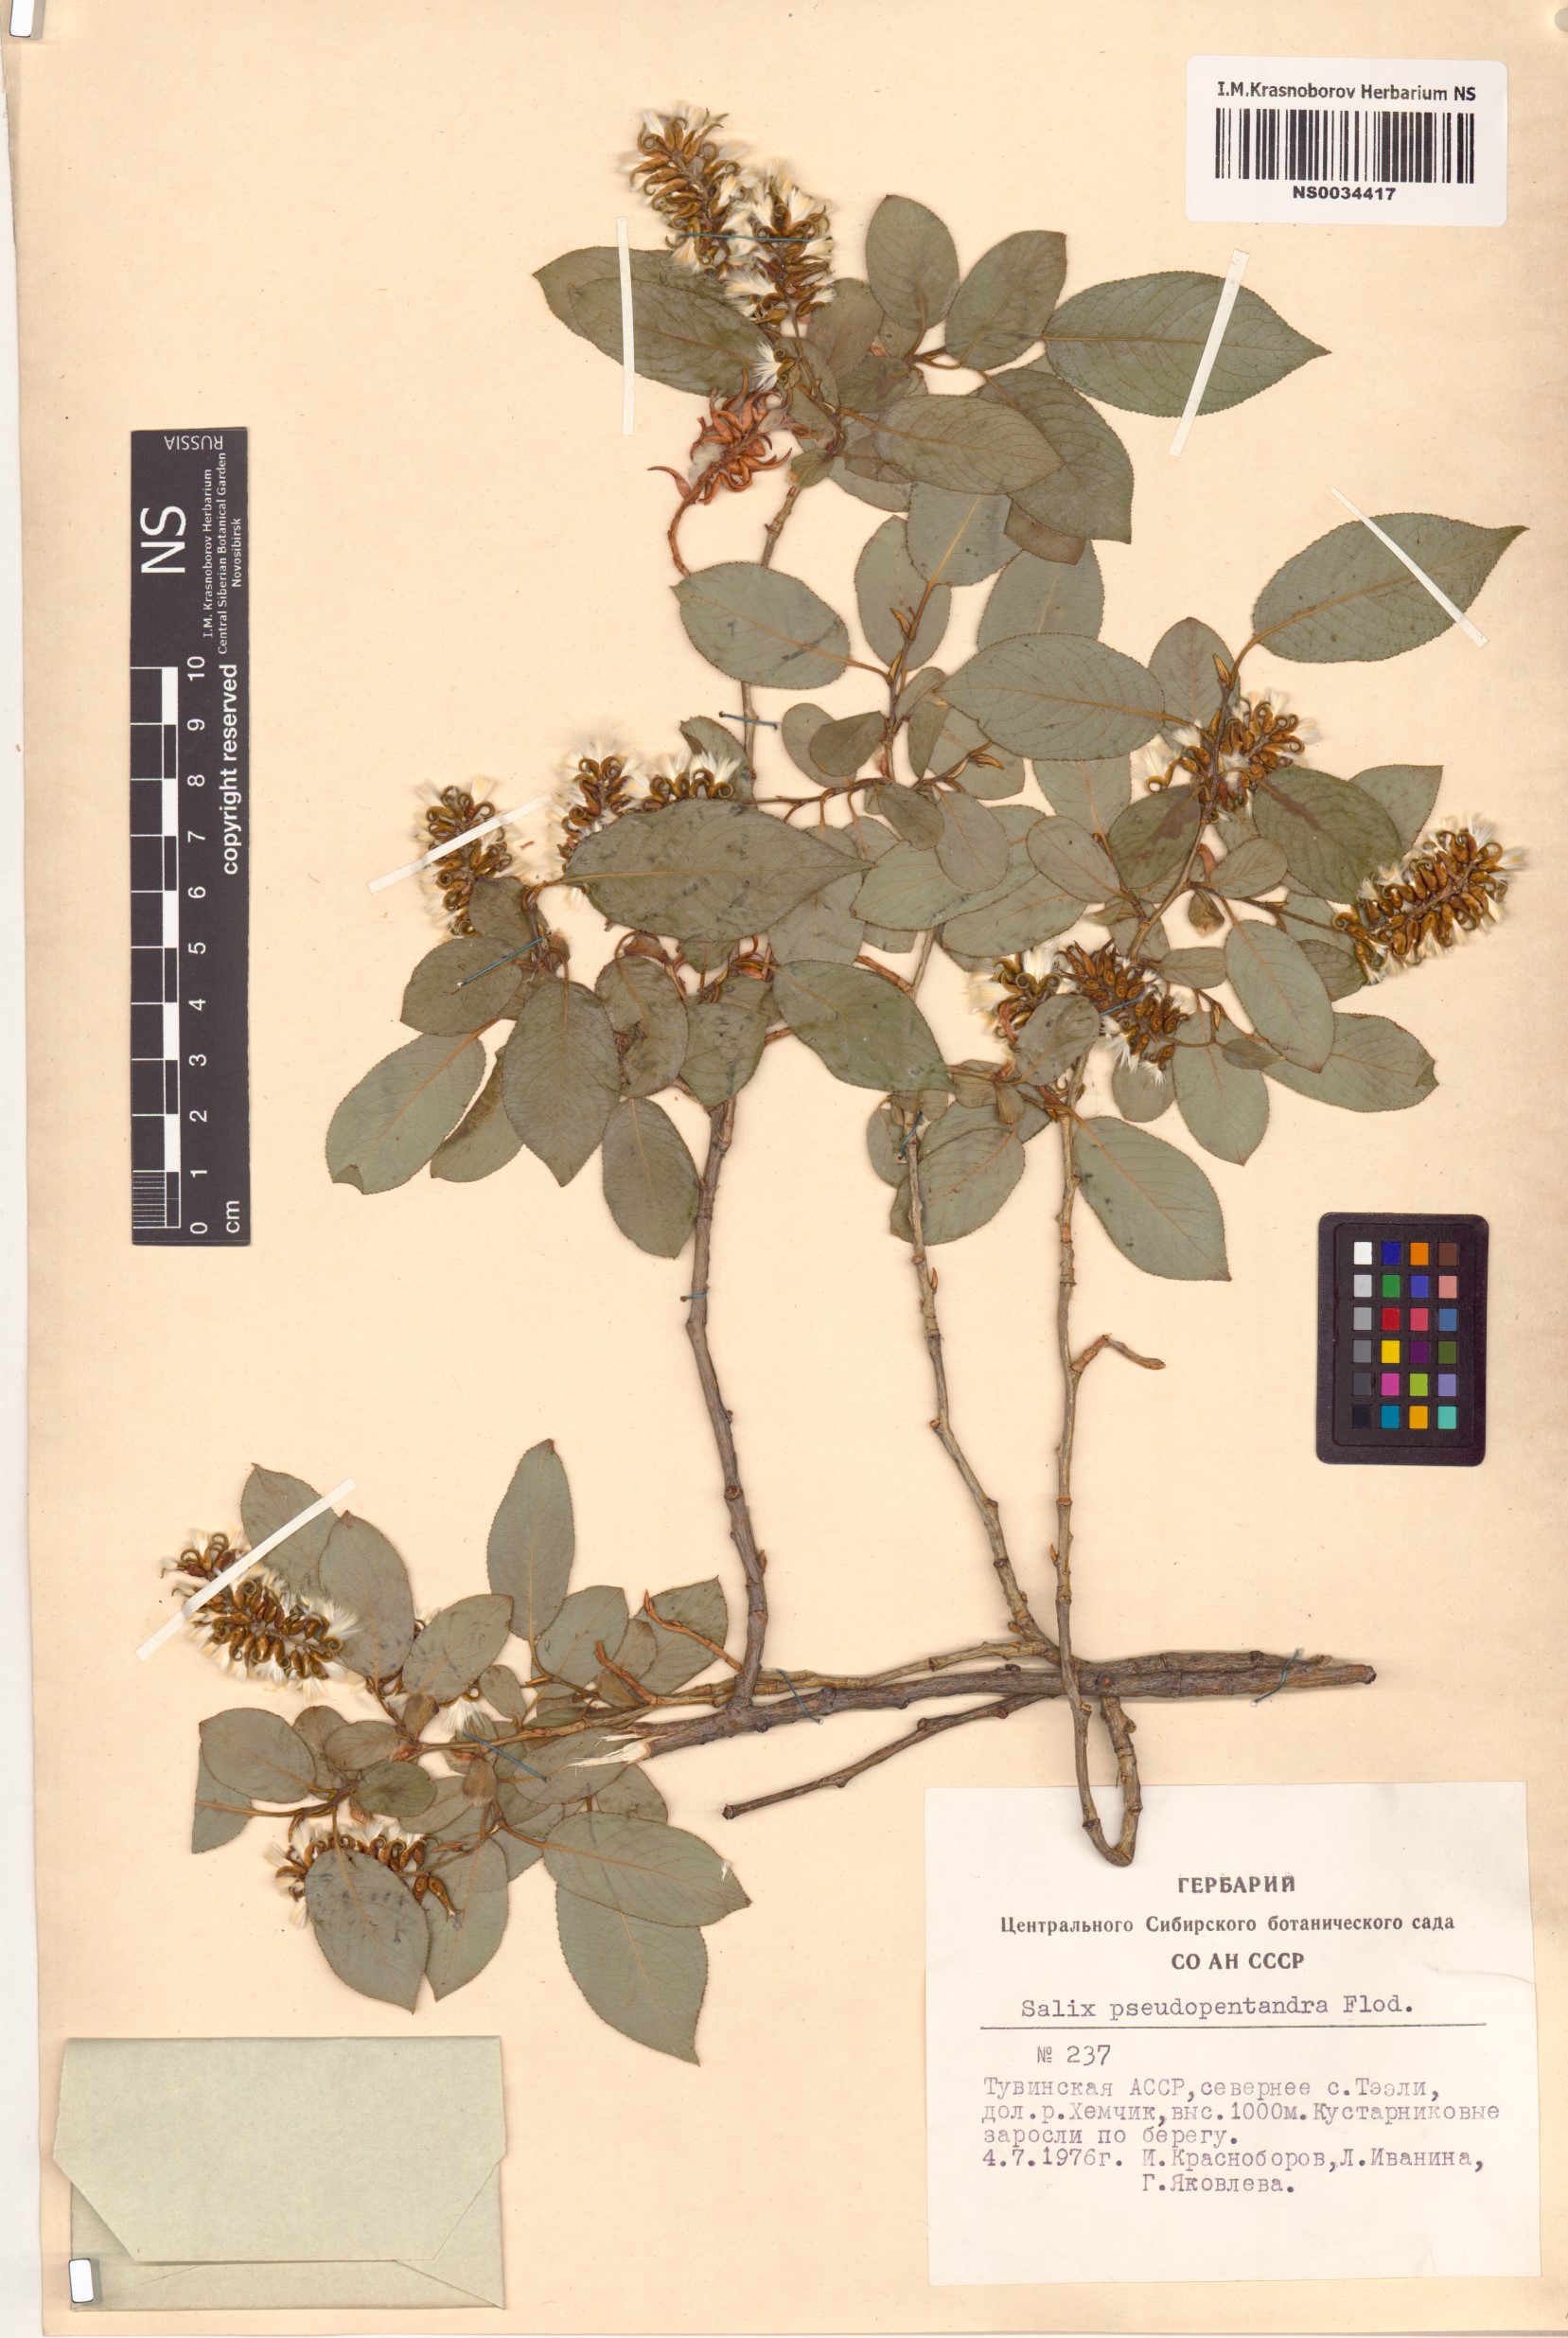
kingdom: Plantae
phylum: Tracheophyta
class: Magnoliopsida
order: Malpighiales
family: Salicaceae
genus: Salix
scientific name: Salix pseudopentandra
